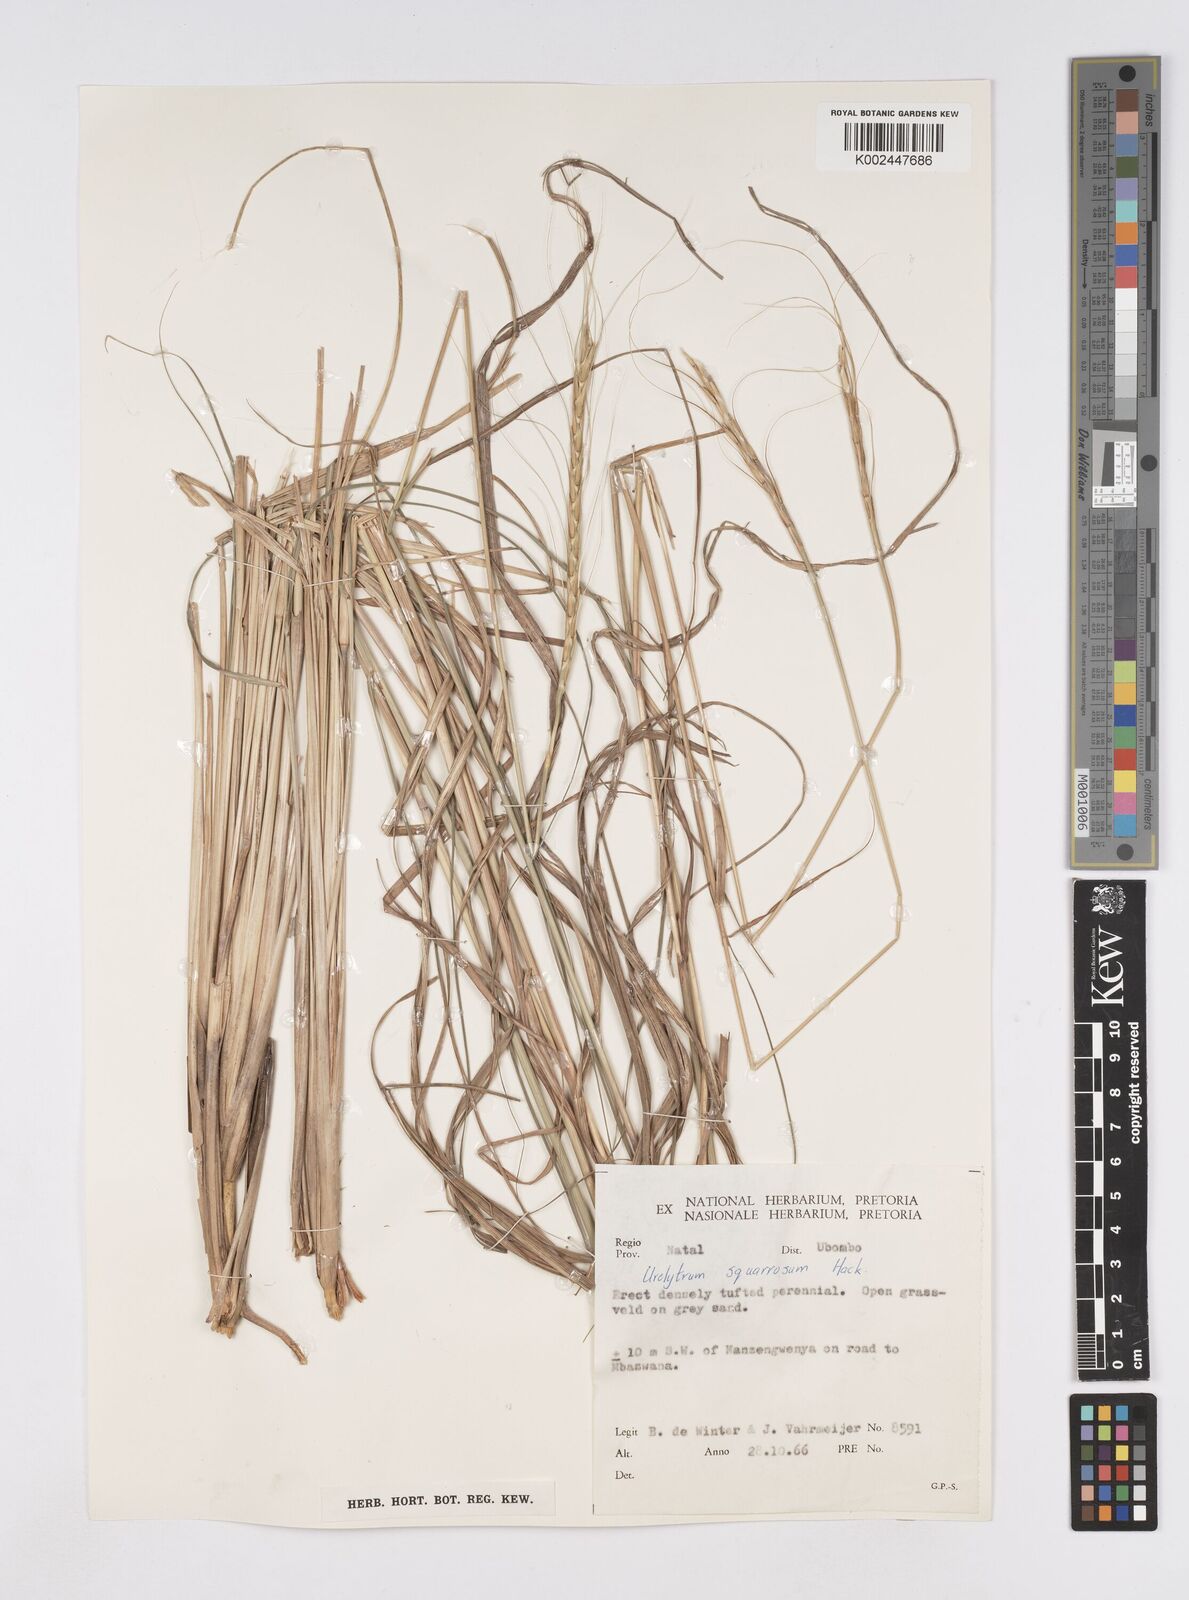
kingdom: Plantae
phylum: Tracheophyta
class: Liliopsida
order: Poales
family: Poaceae
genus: Urelytrum
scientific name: Urelytrum agropyroides
